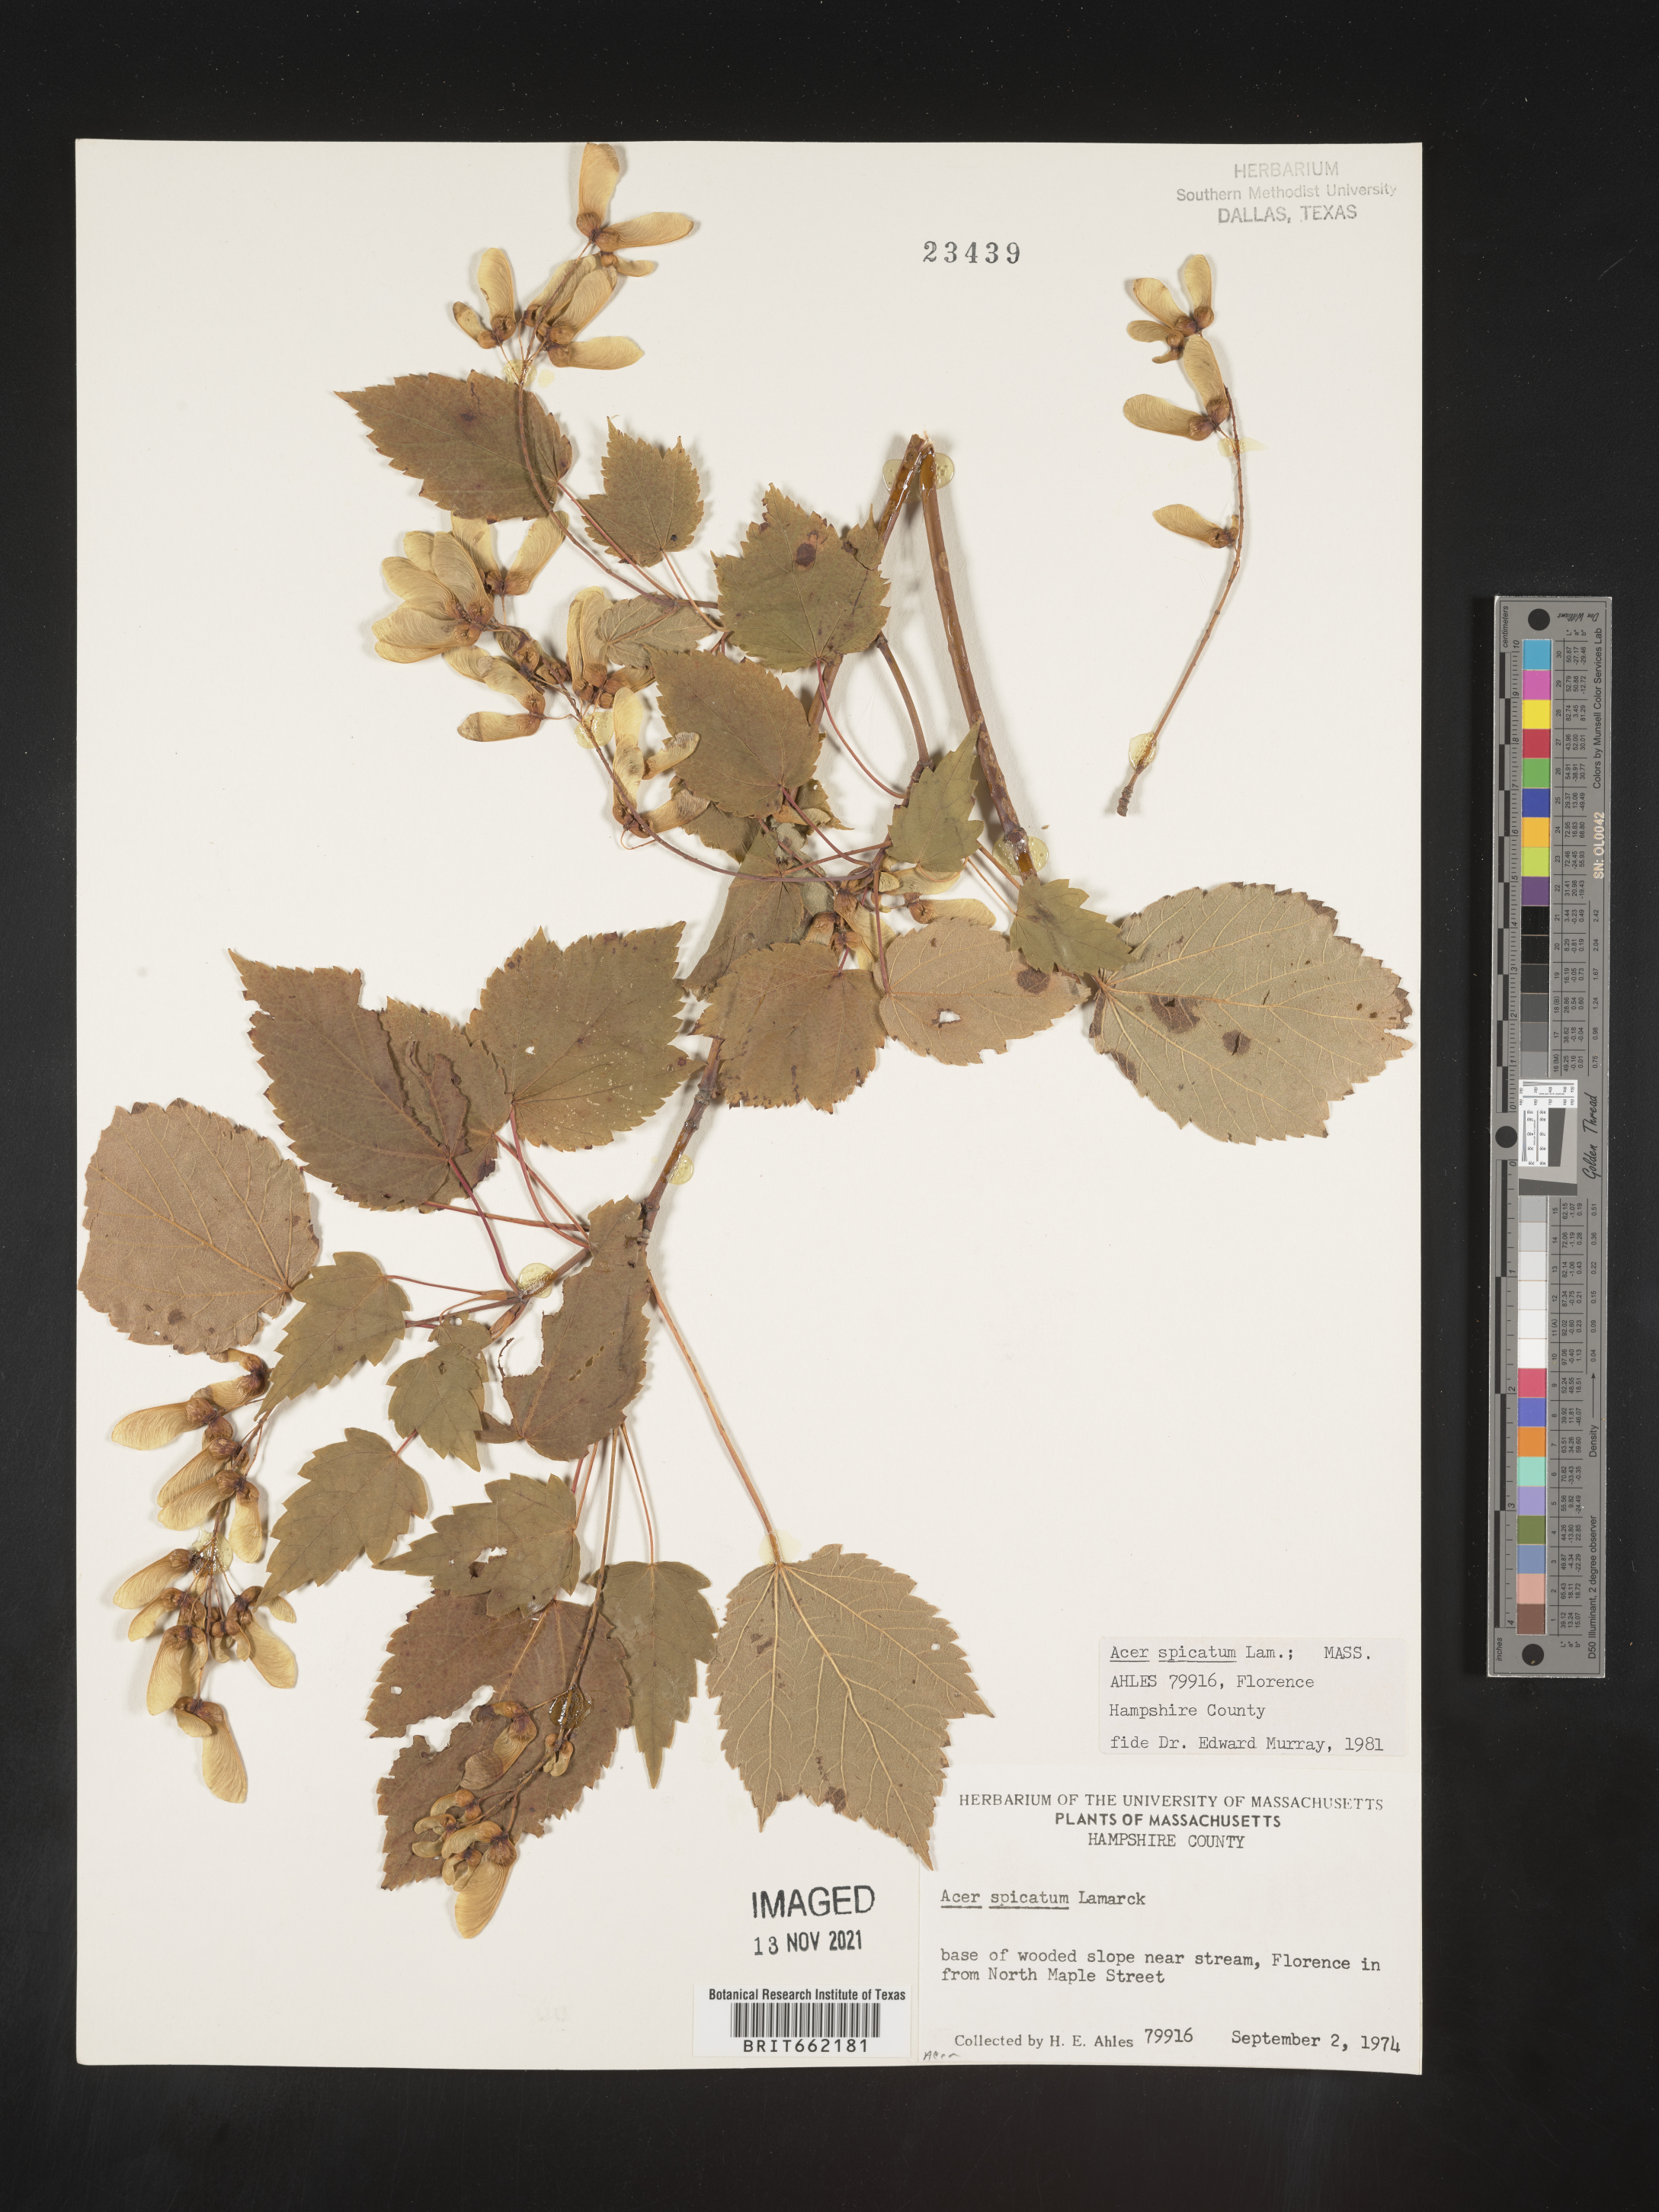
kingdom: Plantae
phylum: Tracheophyta
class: Magnoliopsida
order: Sapindales
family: Sapindaceae
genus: Acer
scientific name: Acer spicatum
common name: Mountain maple
